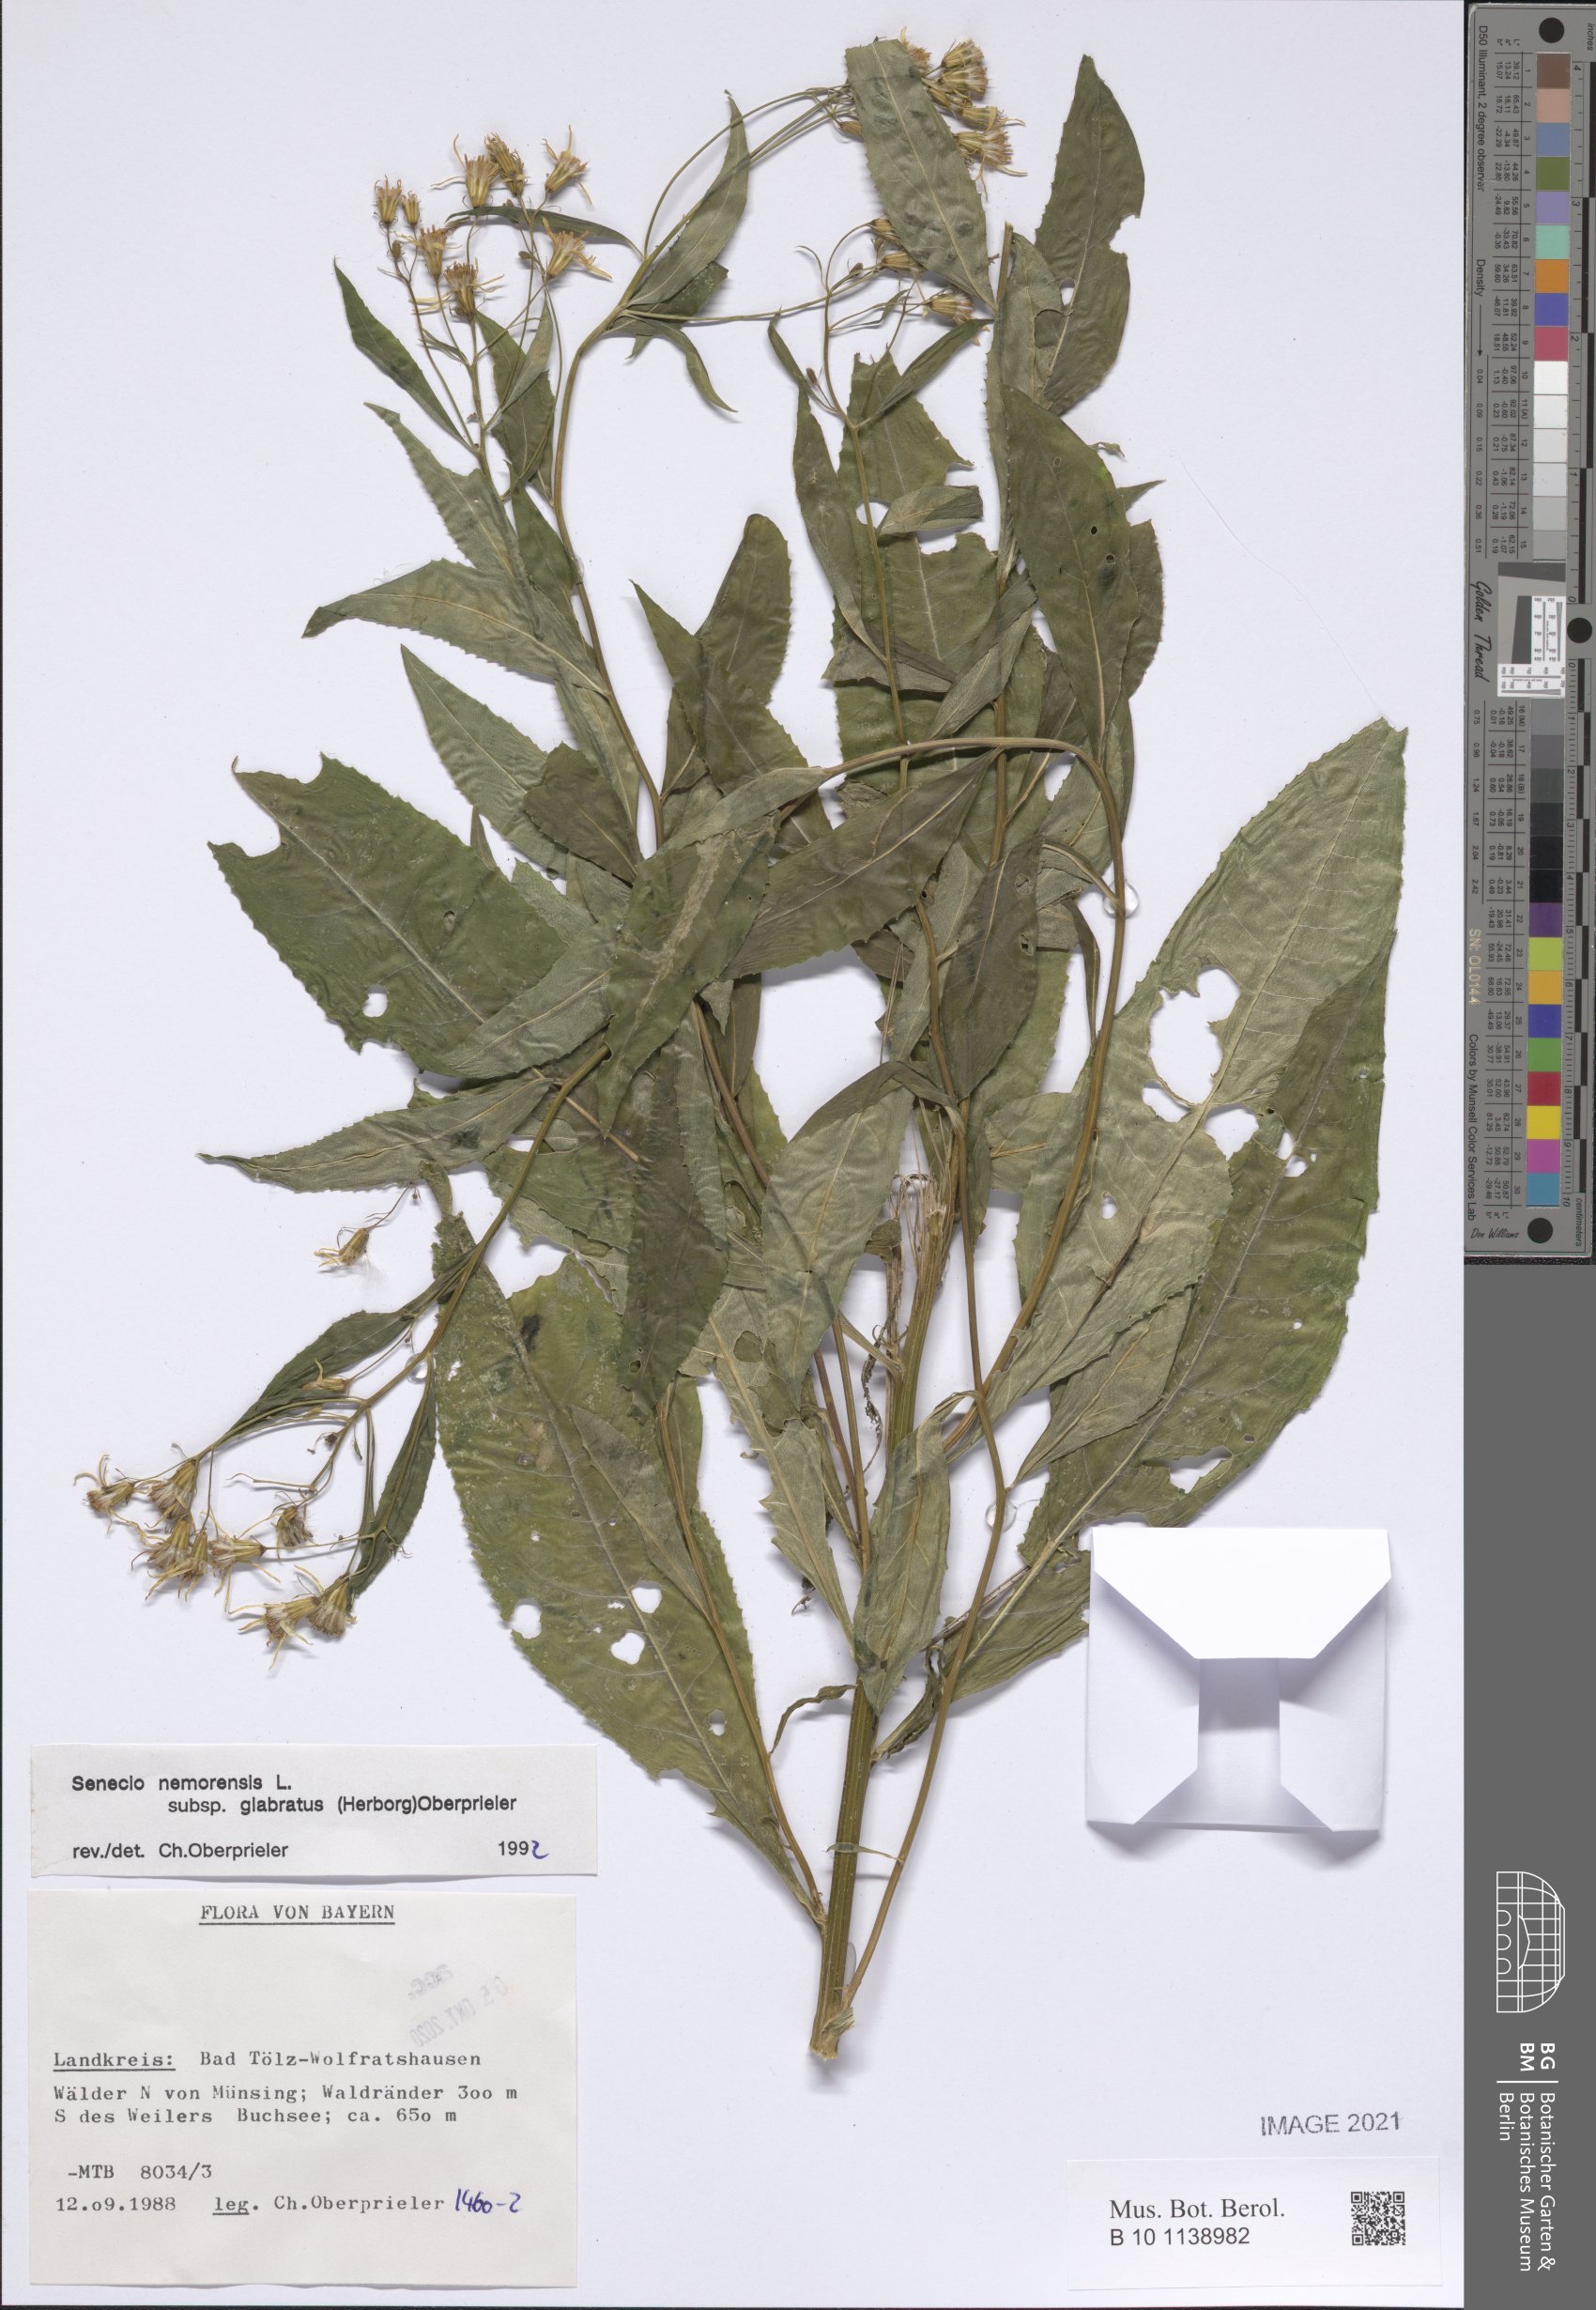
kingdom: Plantae
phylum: Tracheophyta
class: Magnoliopsida
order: Asterales
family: Asteraceae
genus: Senecio
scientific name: Senecio germanicus
